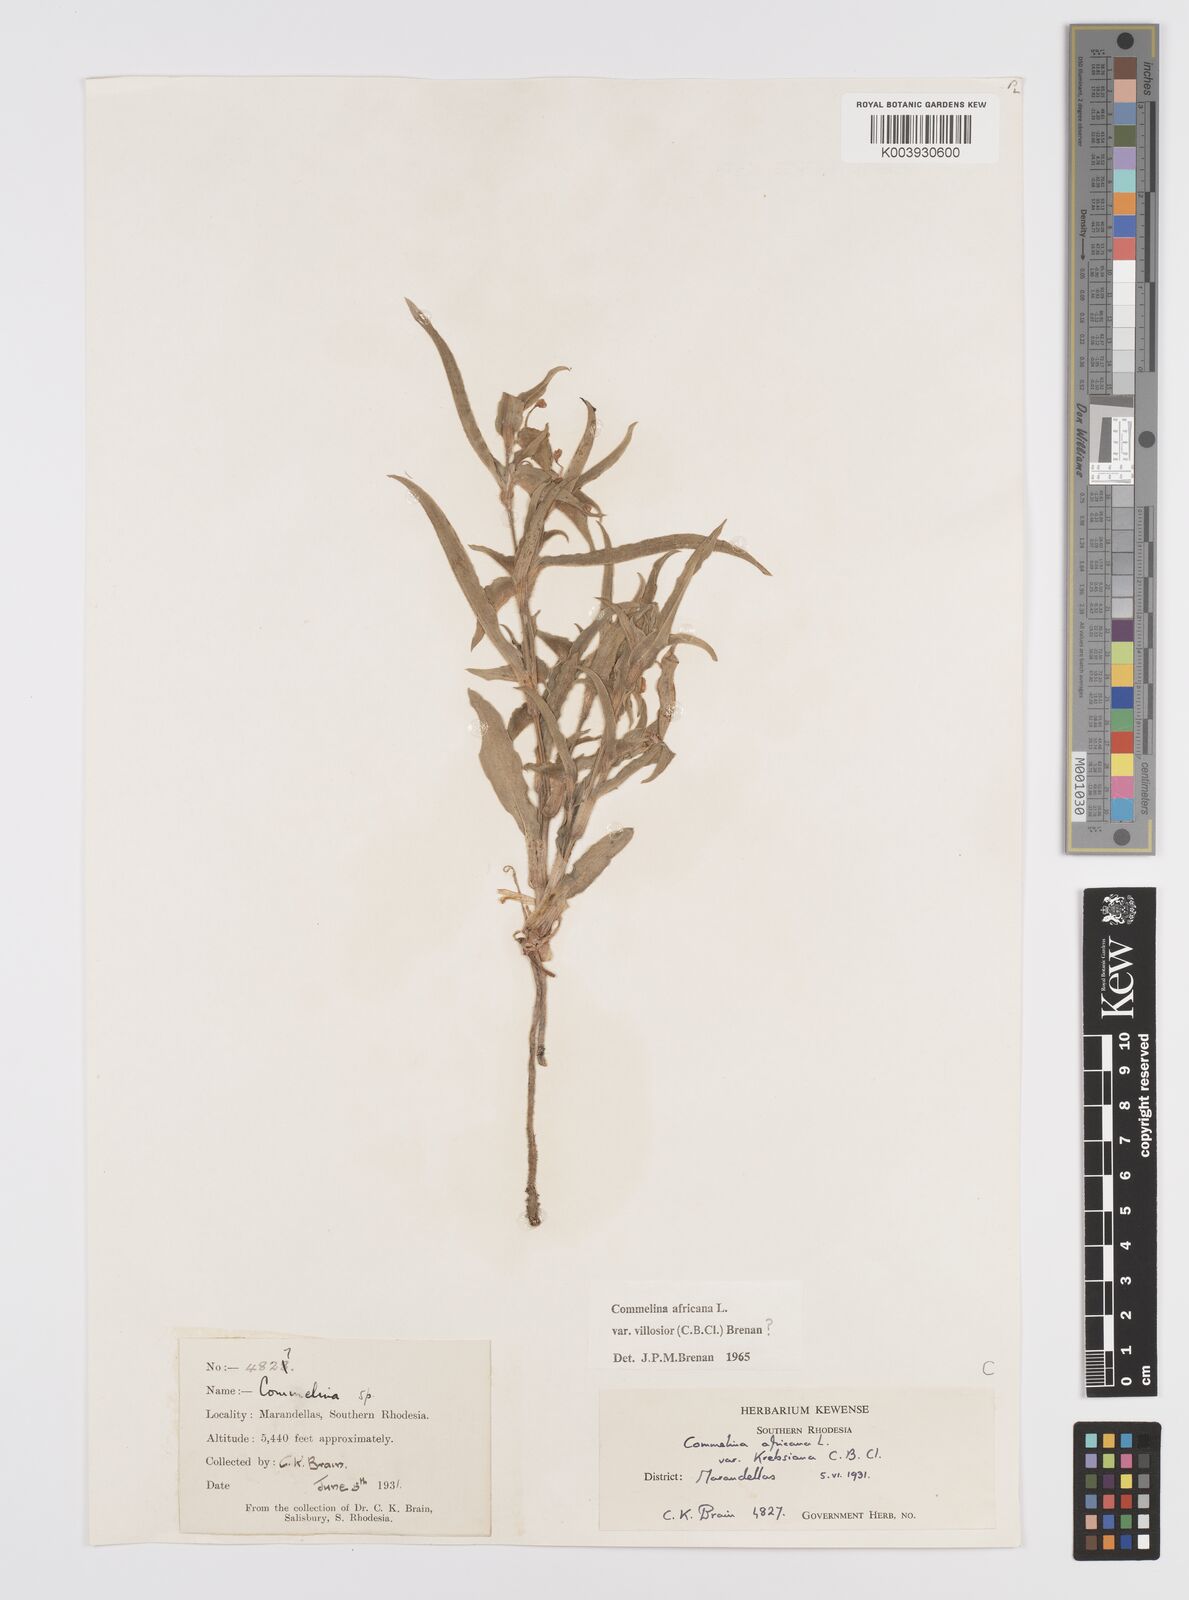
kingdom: Plantae
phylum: Tracheophyta
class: Liliopsida
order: Commelinales
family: Commelinaceae
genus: Commelina
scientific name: Commelina africana
